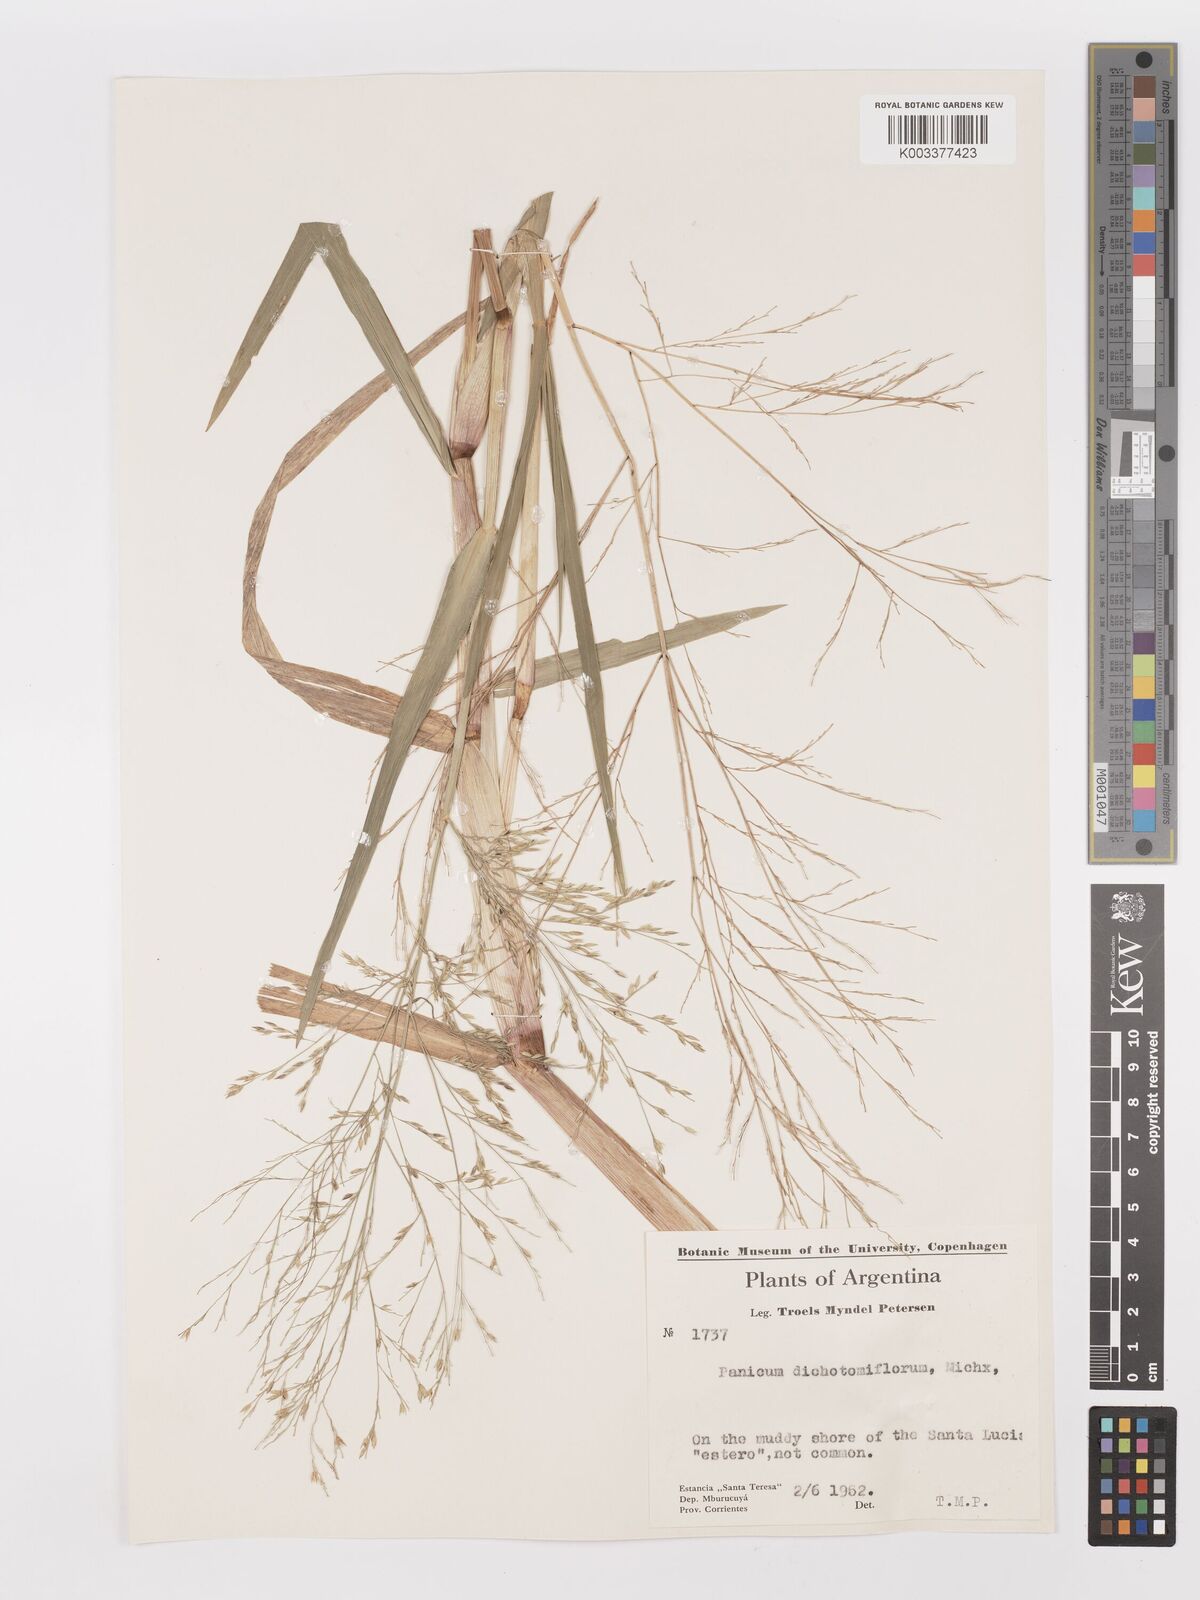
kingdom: Plantae
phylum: Tracheophyta
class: Liliopsida
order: Poales
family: Poaceae
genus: Louisiella
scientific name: Louisiella elephantipes
